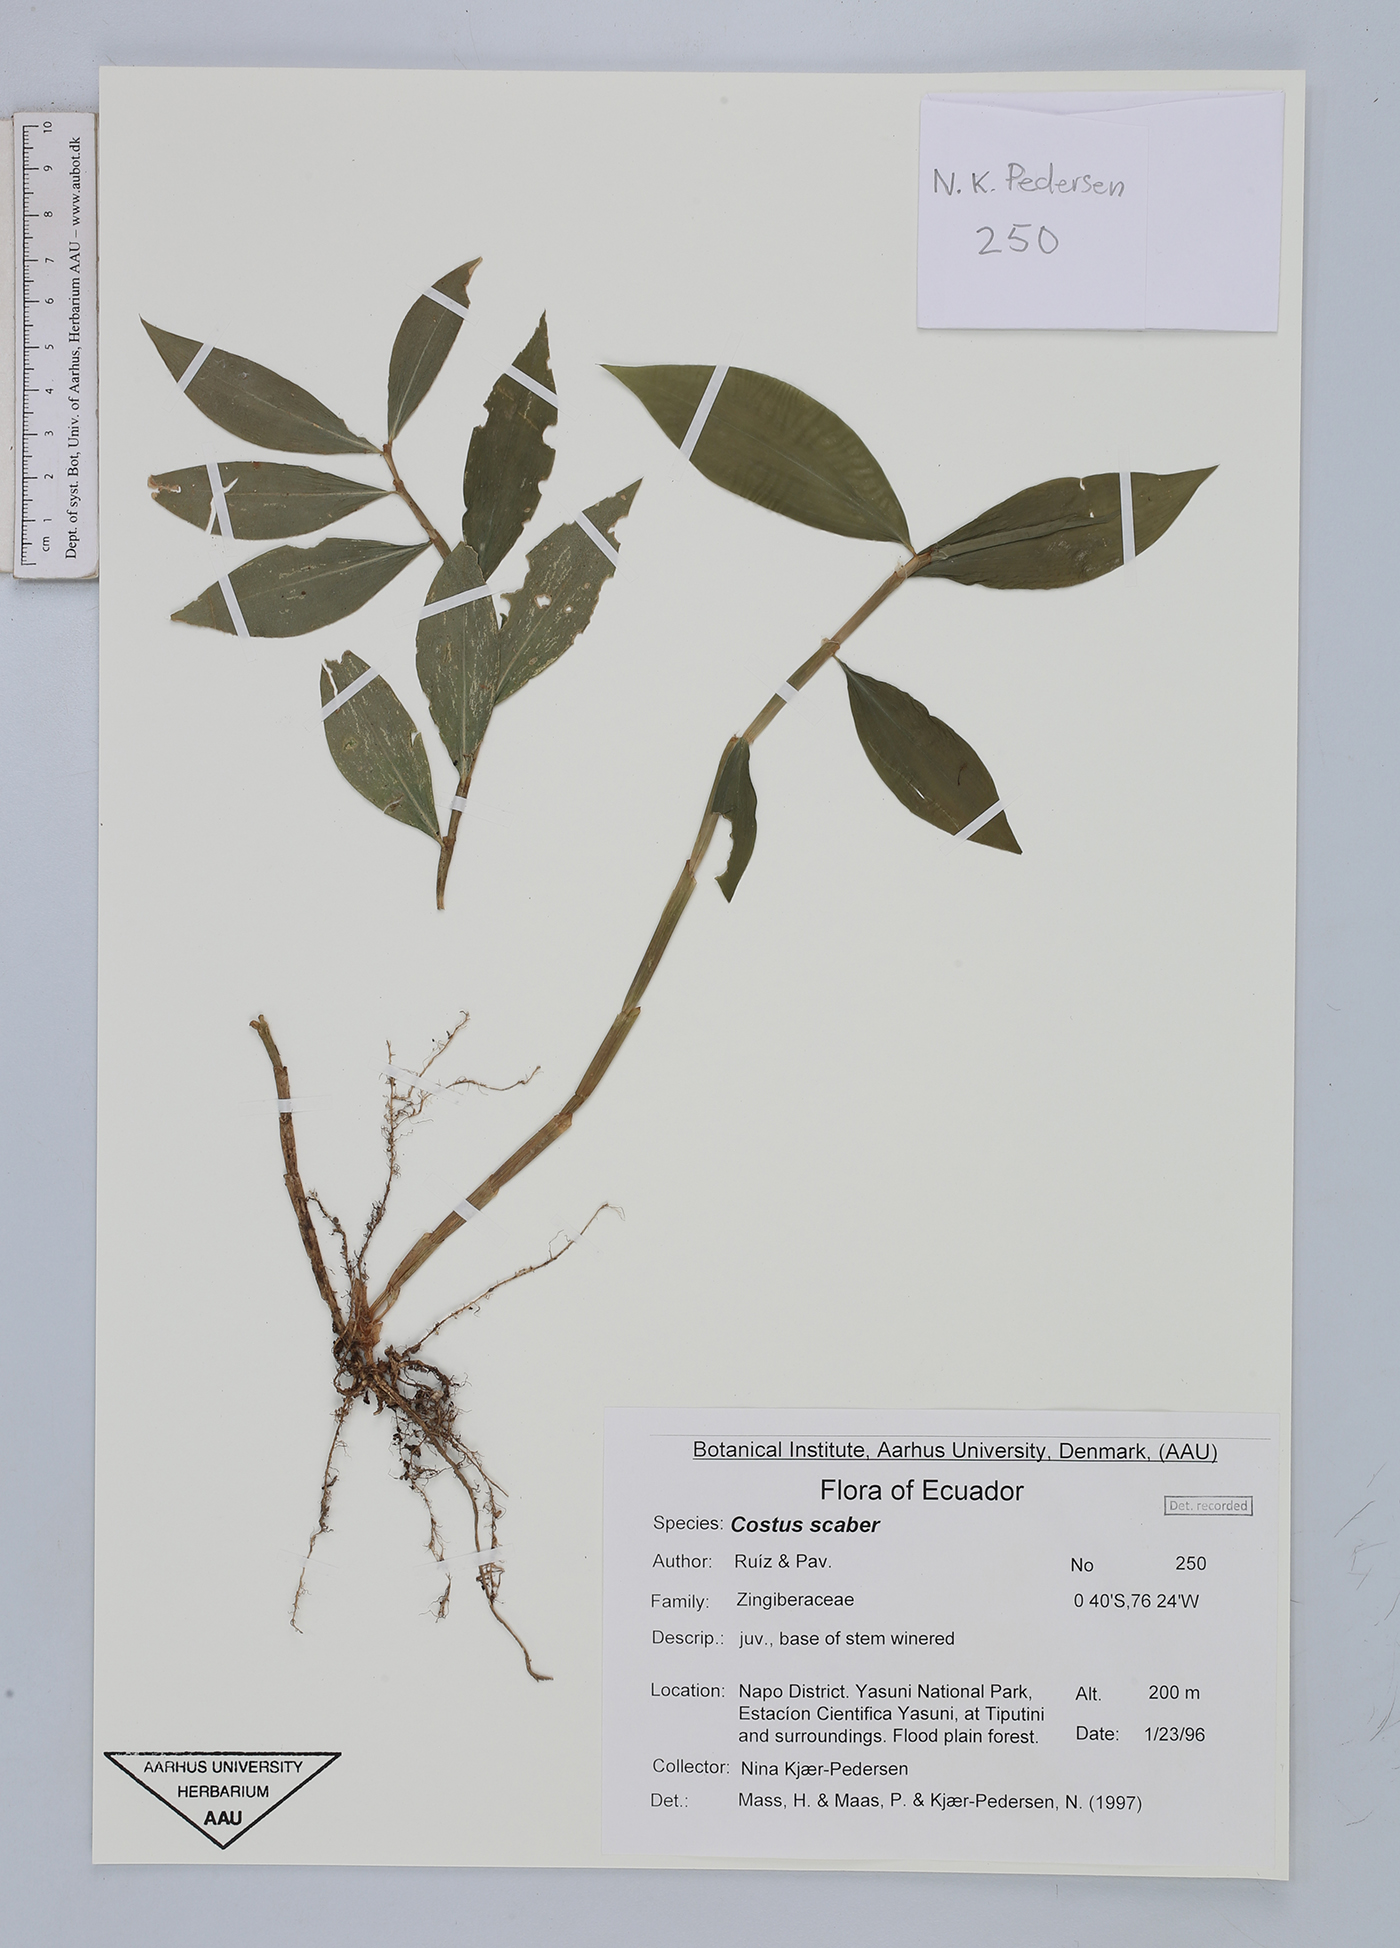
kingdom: Plantae
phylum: Tracheophyta
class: Liliopsida
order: Zingiberales
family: Costaceae
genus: Costus
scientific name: Costus scaber
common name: Spiral head ginger
